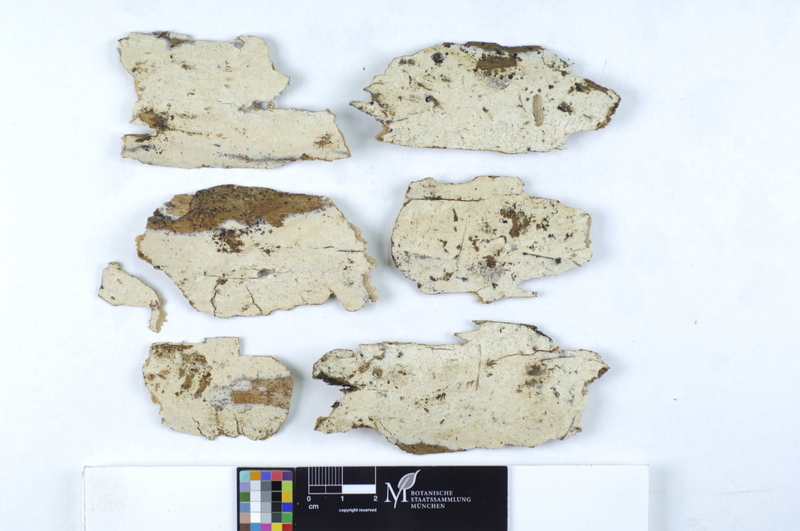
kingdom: Plantae
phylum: Tracheophyta
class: Pinopsida
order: Pinales
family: Pinaceae
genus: Pinus
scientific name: Pinus
